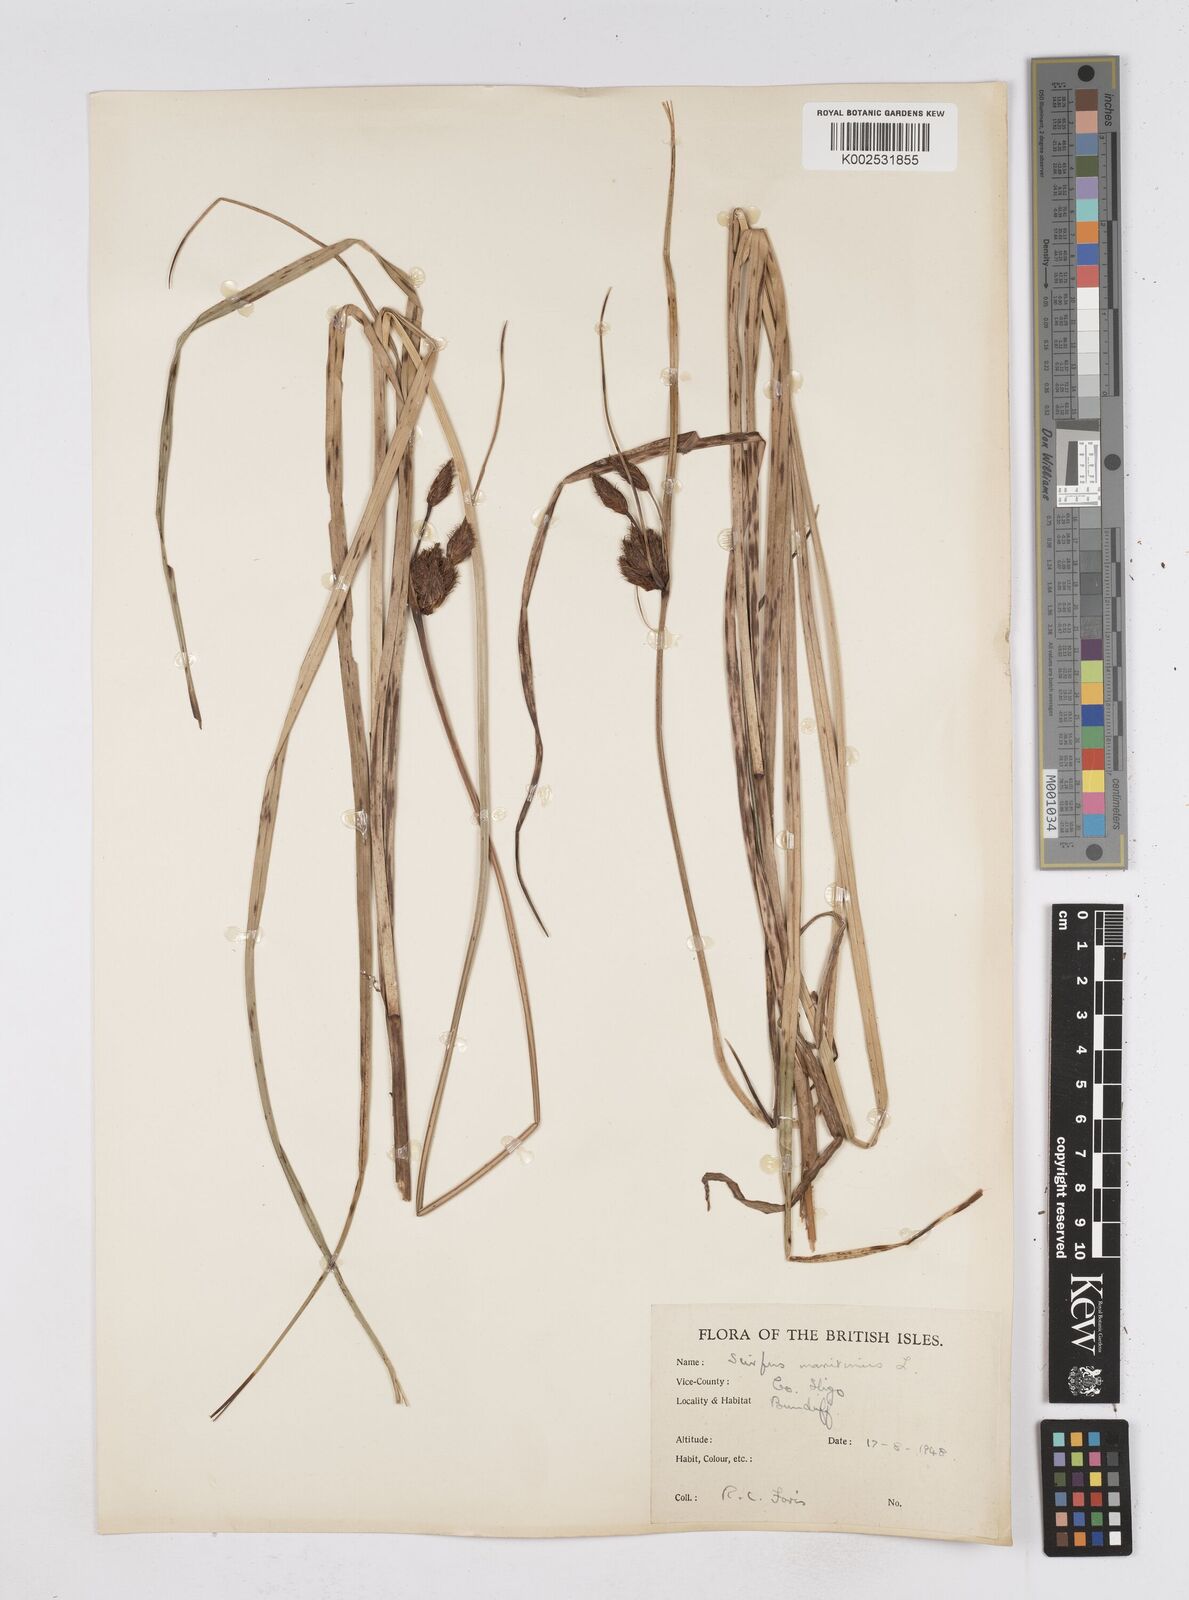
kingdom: Plantae
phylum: Tracheophyta
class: Liliopsida
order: Poales
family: Cyperaceae
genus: Bolboschoenus
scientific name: Bolboschoenus maritimus
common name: Sea club-rush
